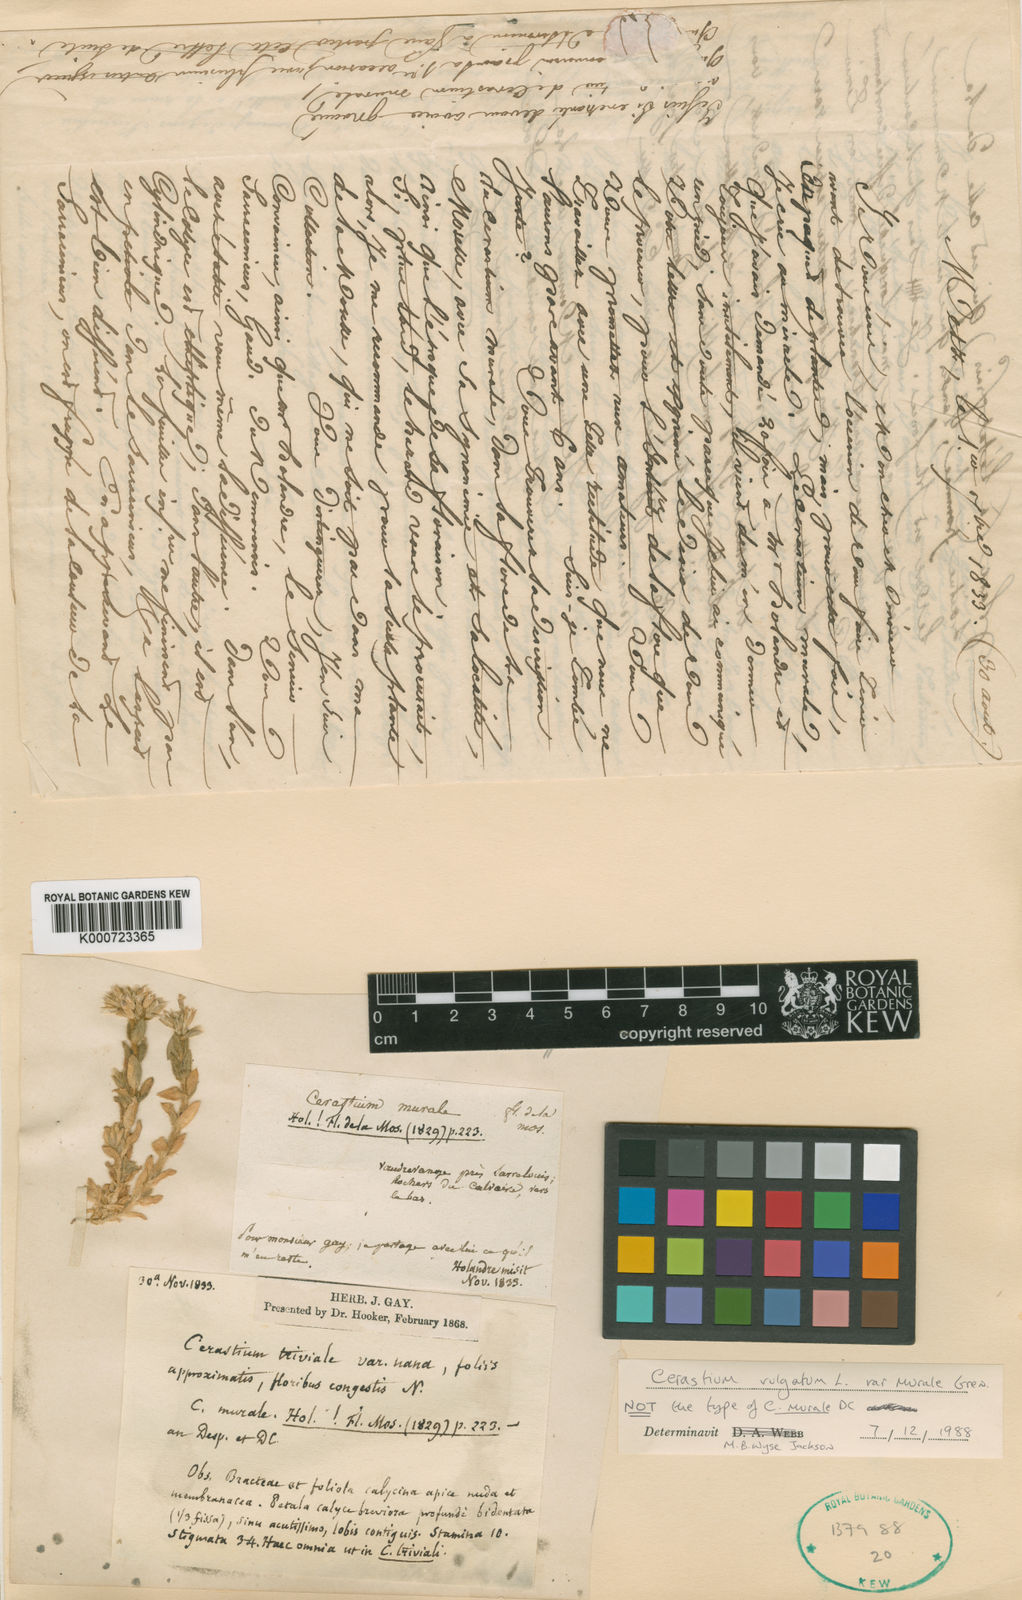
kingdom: Plantae
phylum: Tracheophyta
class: Magnoliopsida
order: Caryophyllales
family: Caryophyllaceae
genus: Cerastium
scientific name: Cerastium
